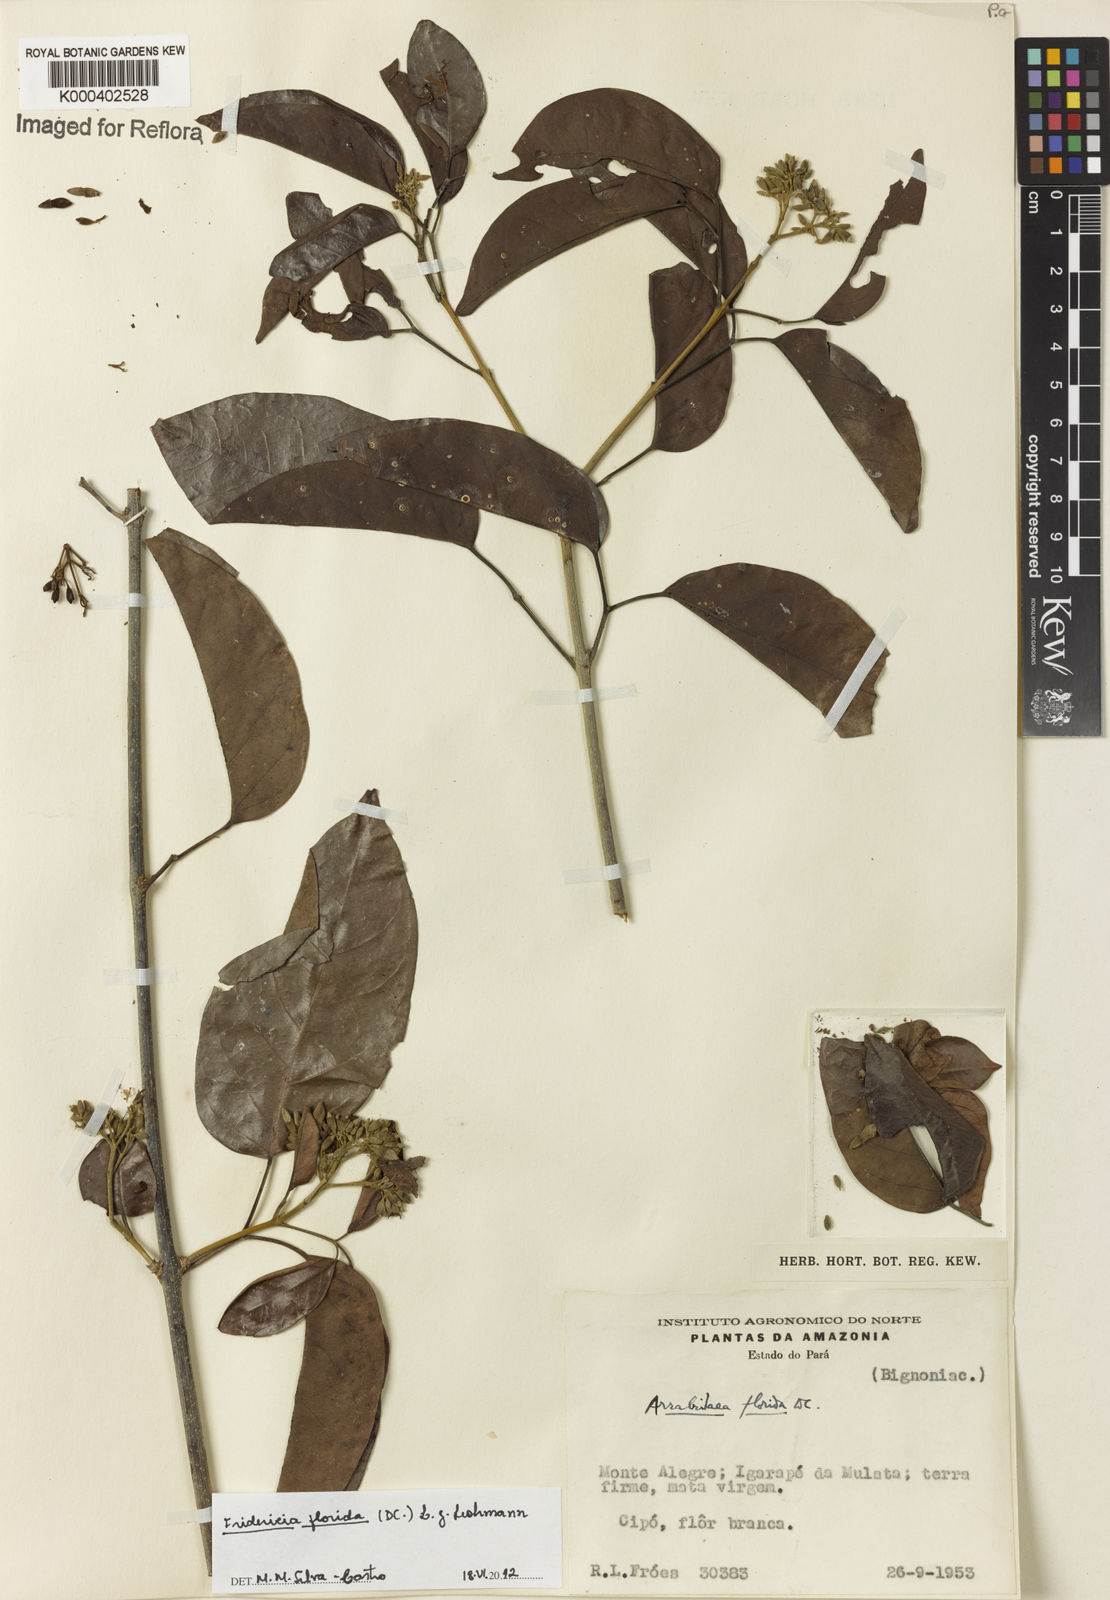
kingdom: Plantae
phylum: Tracheophyta
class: Magnoliopsida
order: Lamiales
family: Bignoniaceae
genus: Fridericia
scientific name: Fridericia florida
